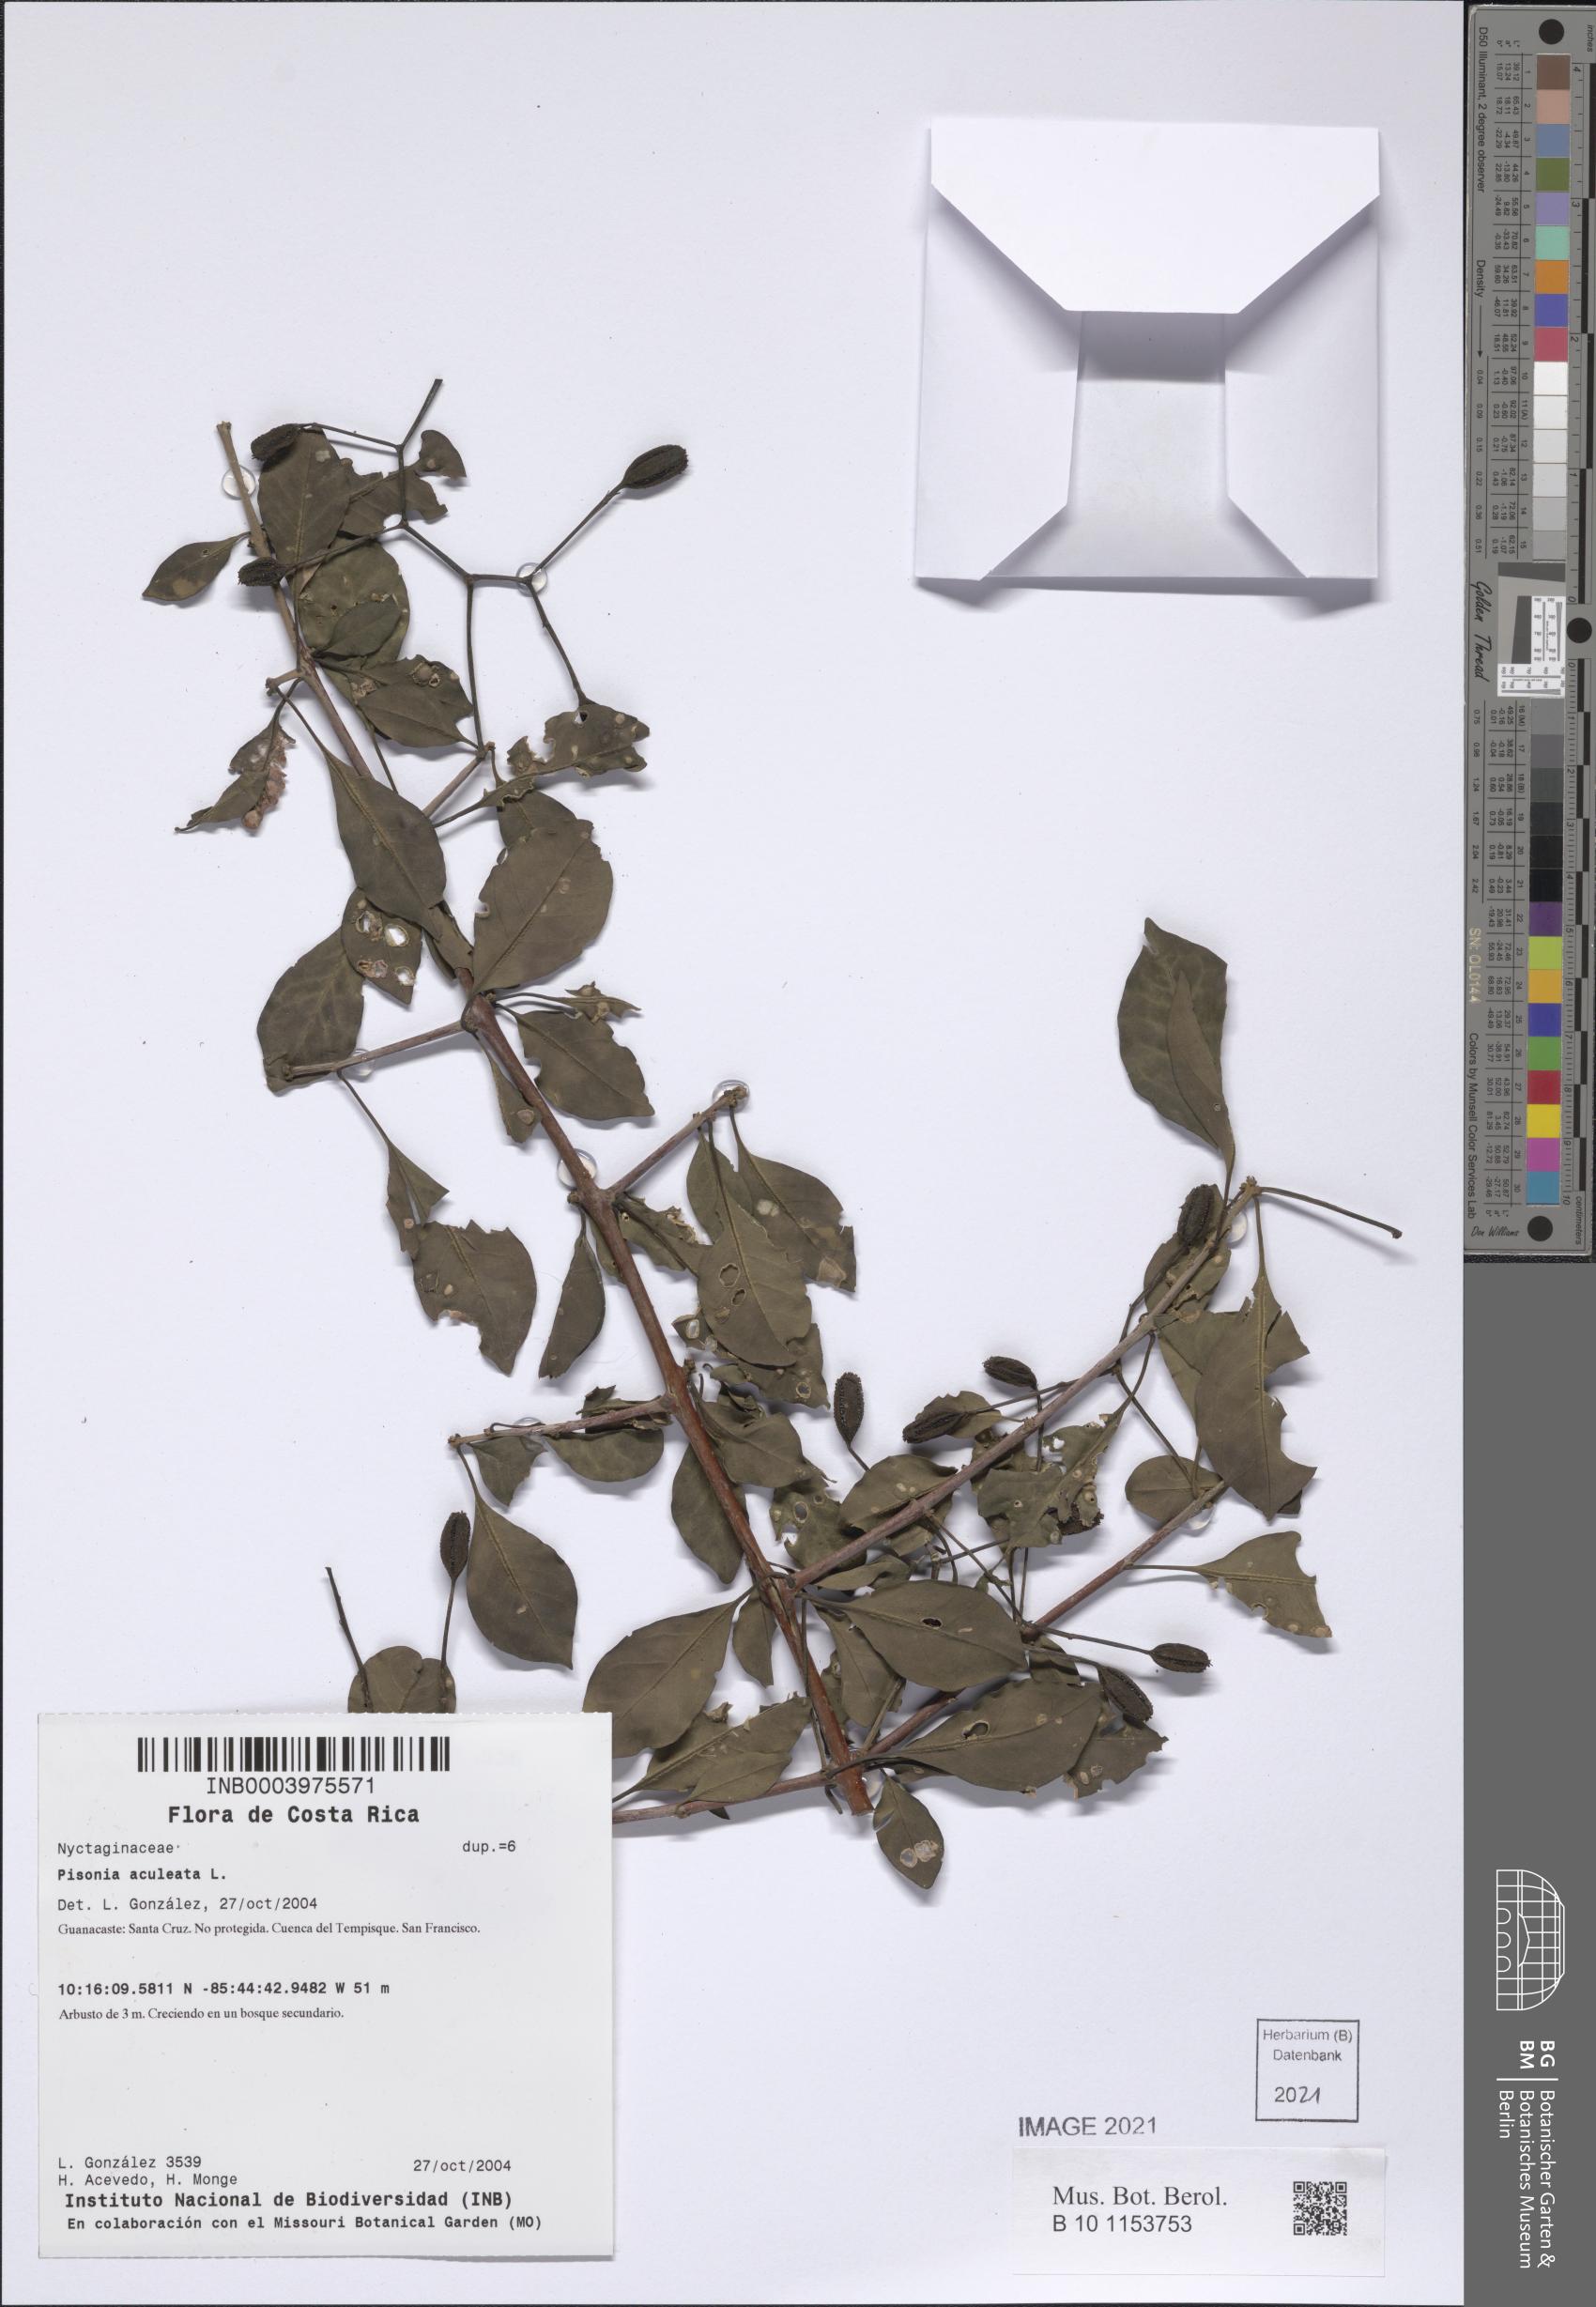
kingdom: Plantae
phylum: Tracheophyta
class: Magnoliopsida
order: Caryophyllales
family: Nyctaginaceae
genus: Pisonia
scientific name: Pisonia macranthocarpa
